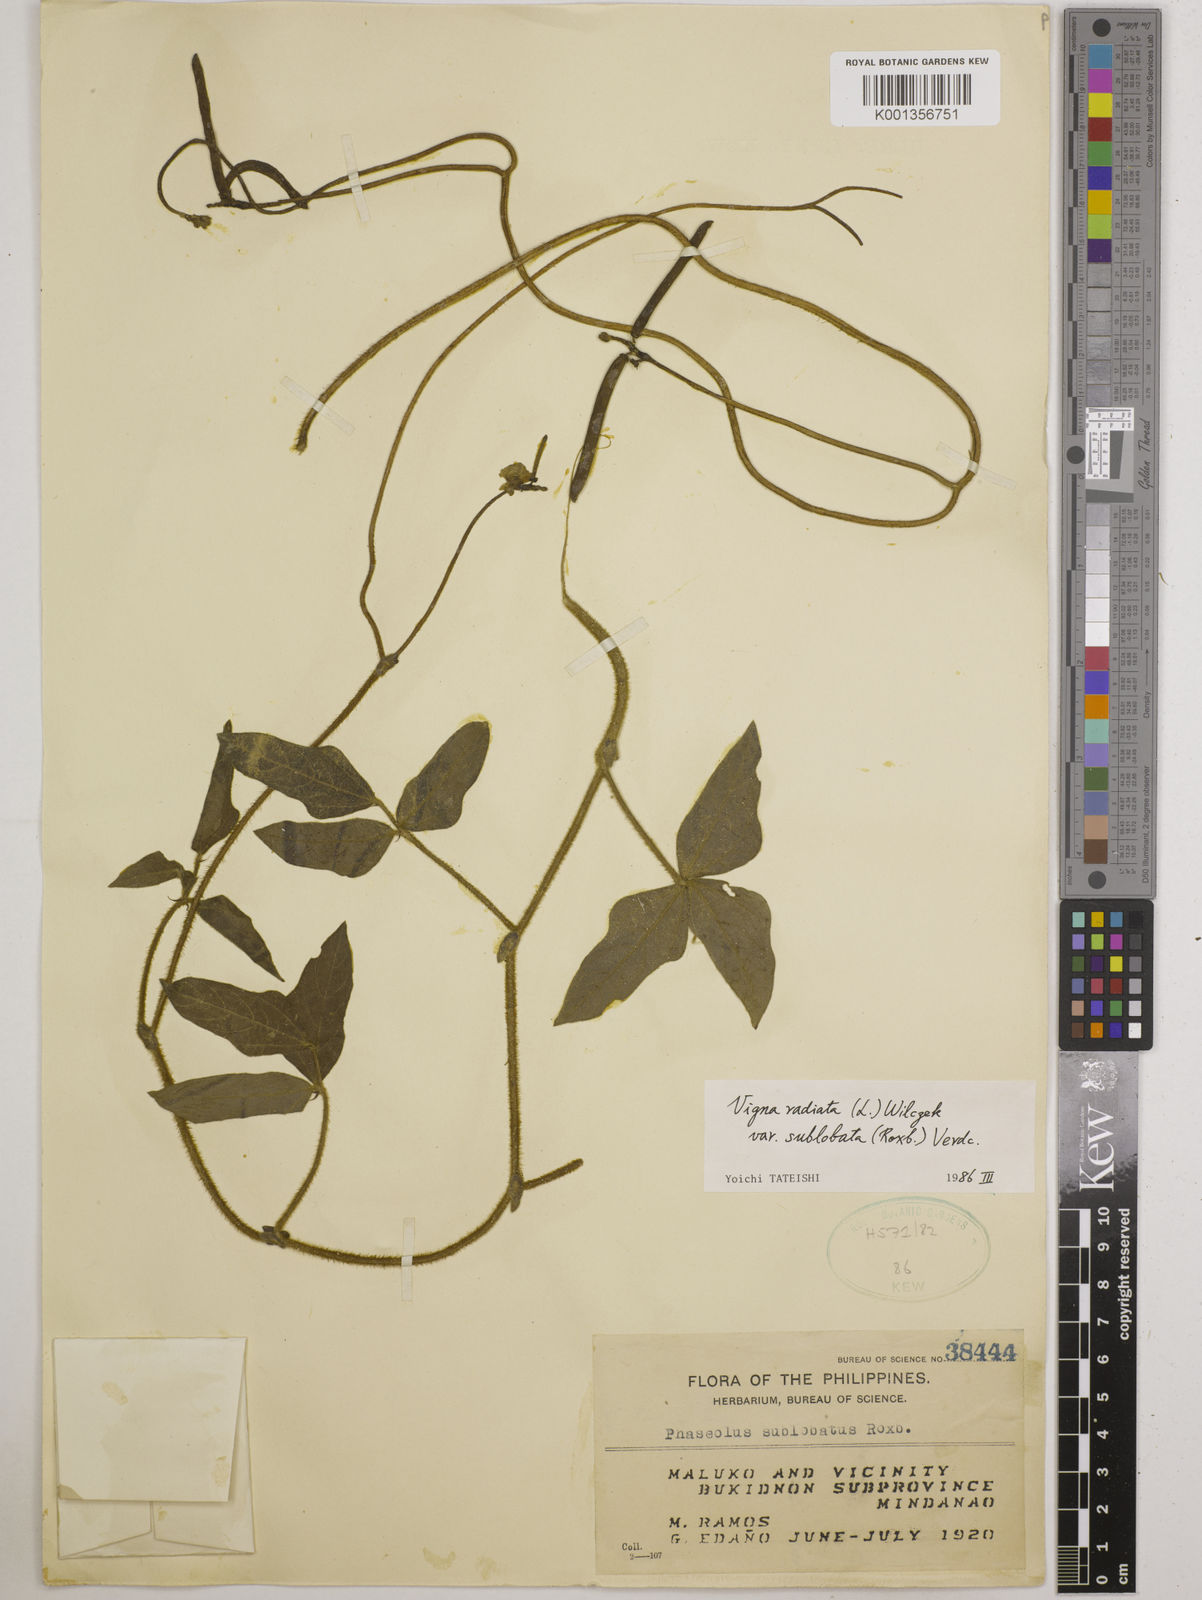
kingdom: Plantae
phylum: Tracheophyta
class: Magnoliopsida
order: Fabales
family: Fabaceae
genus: Vigna
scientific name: Vigna radiata
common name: Mung-bean
